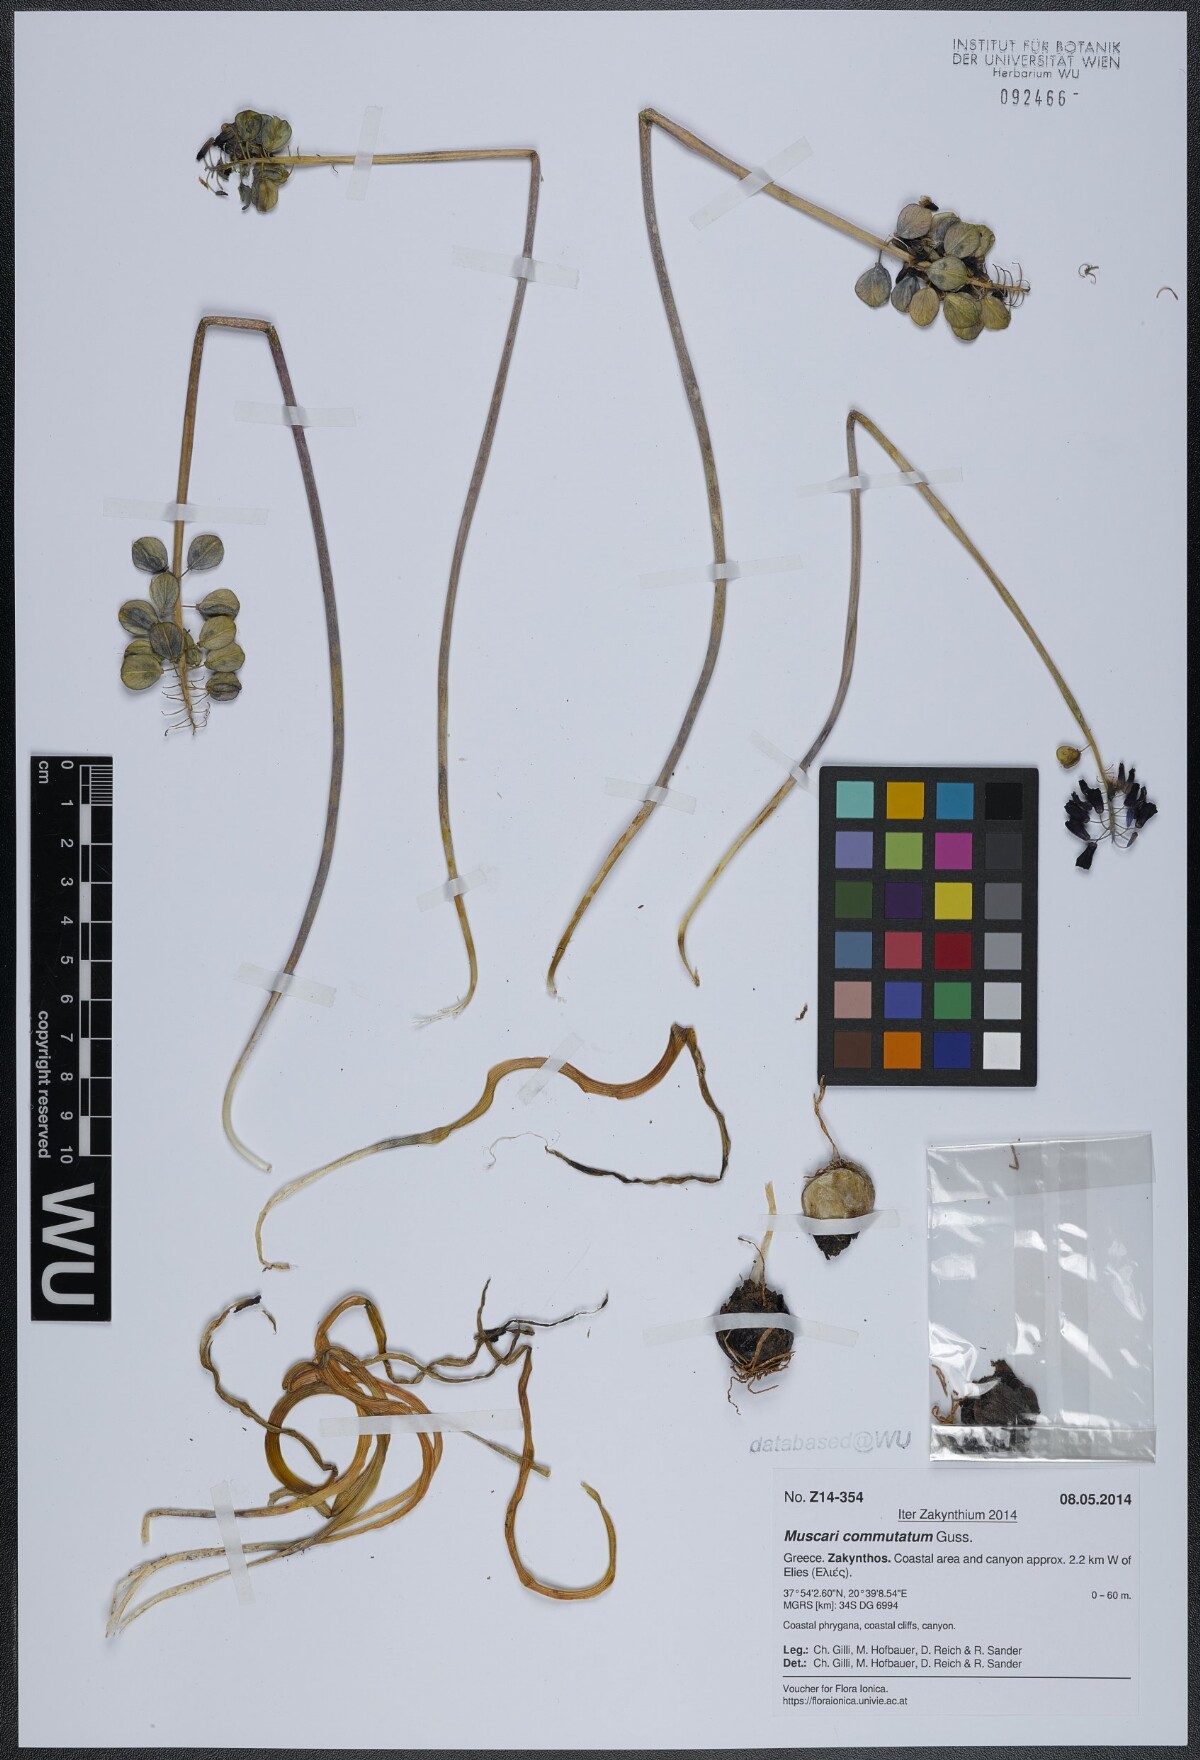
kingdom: Plantae
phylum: Tracheophyta
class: Liliopsida
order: Asparagales
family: Asparagaceae
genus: Muscari
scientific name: Muscari commutatum
